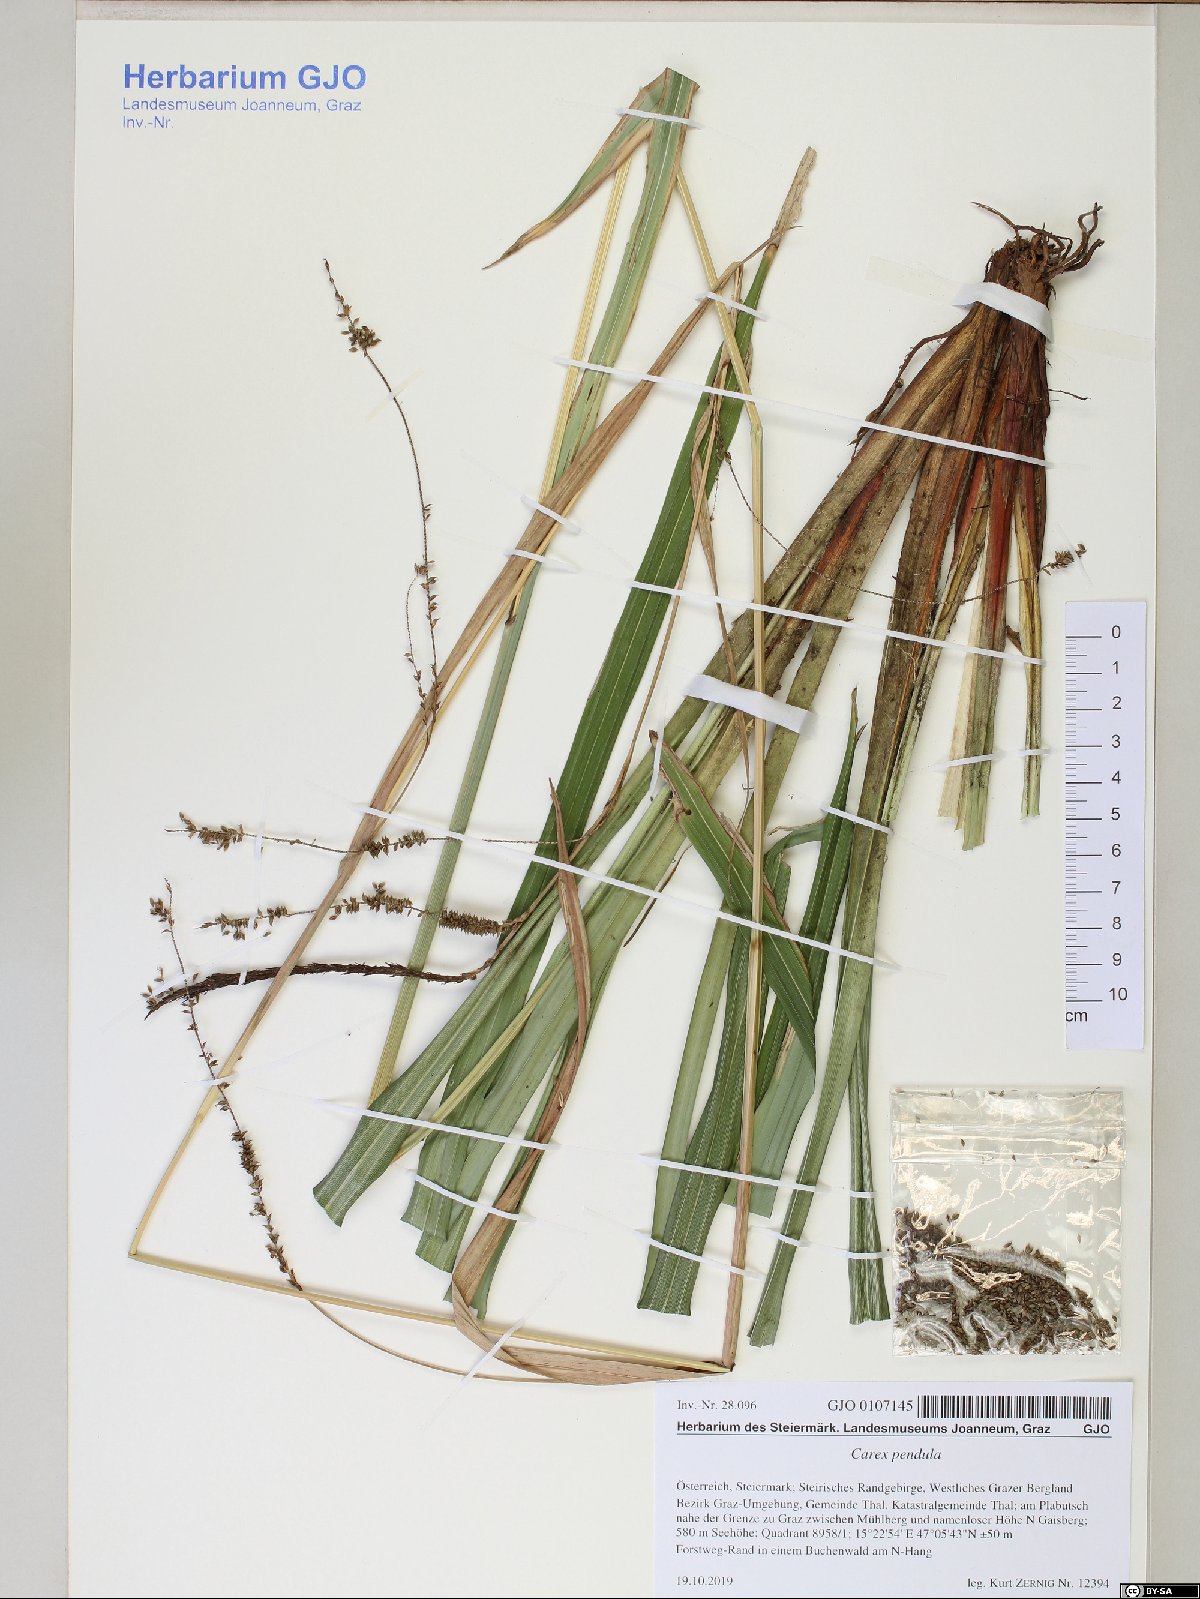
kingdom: Plantae
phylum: Tracheophyta
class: Liliopsida
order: Poales
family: Cyperaceae
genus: Carex
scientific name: Carex pendula
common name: Pendulous sedge
